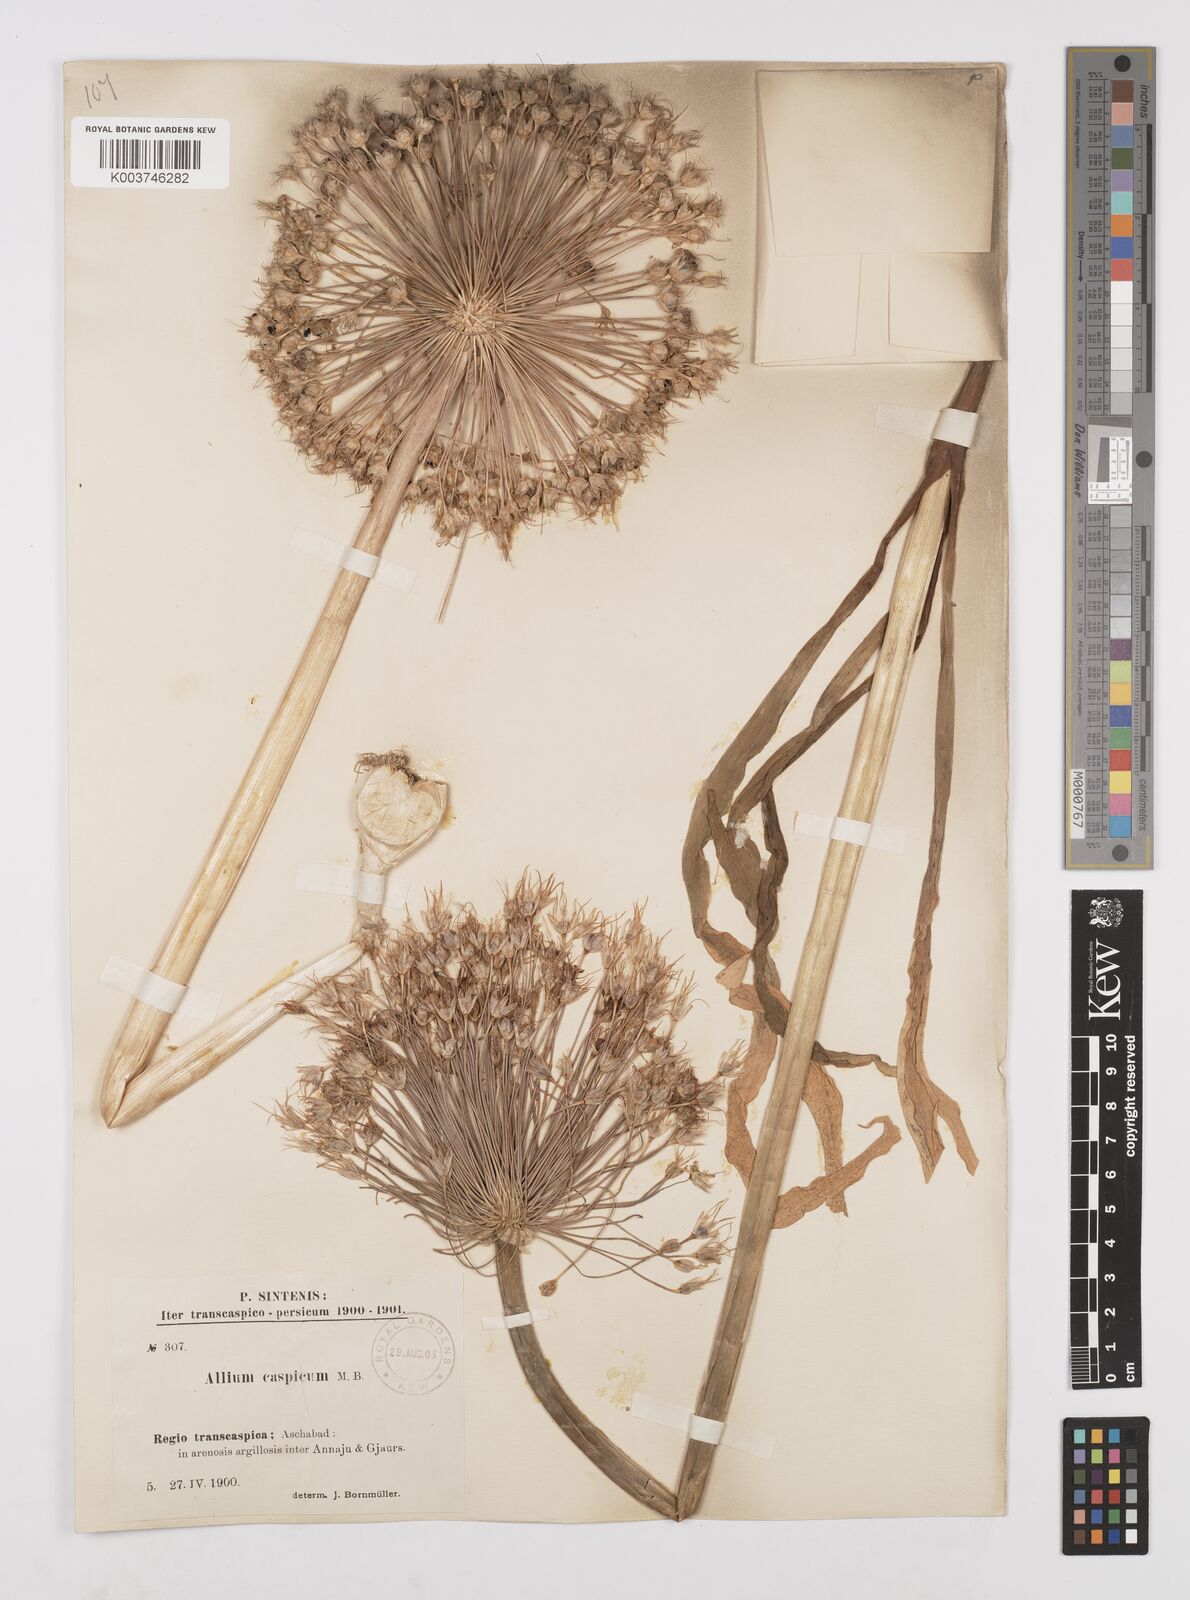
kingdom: Plantae
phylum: Tracheophyta
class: Liliopsida
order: Asparagales
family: Amaryllidaceae
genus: Allium
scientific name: Allium caspium
